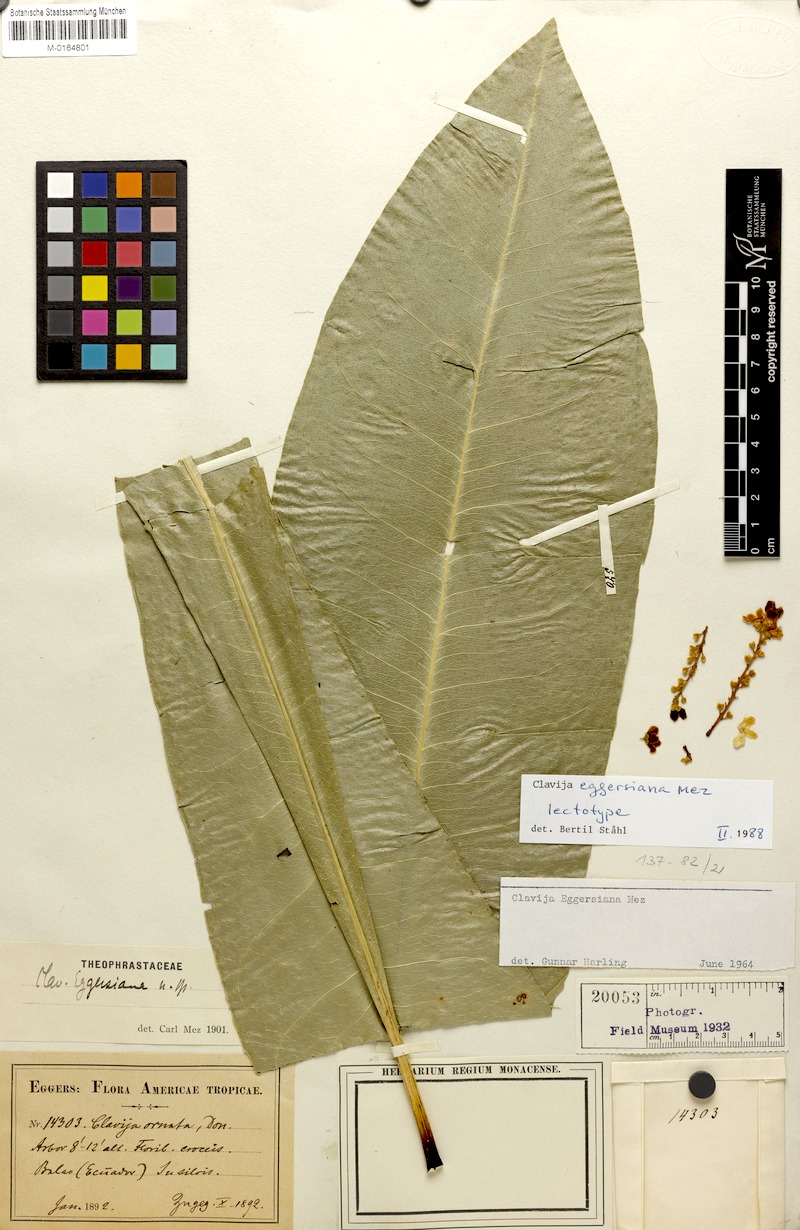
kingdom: Plantae
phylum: Tracheophyta
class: Magnoliopsida
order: Ericales
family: Primulaceae
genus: Clavija
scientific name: Clavija eggersiana
